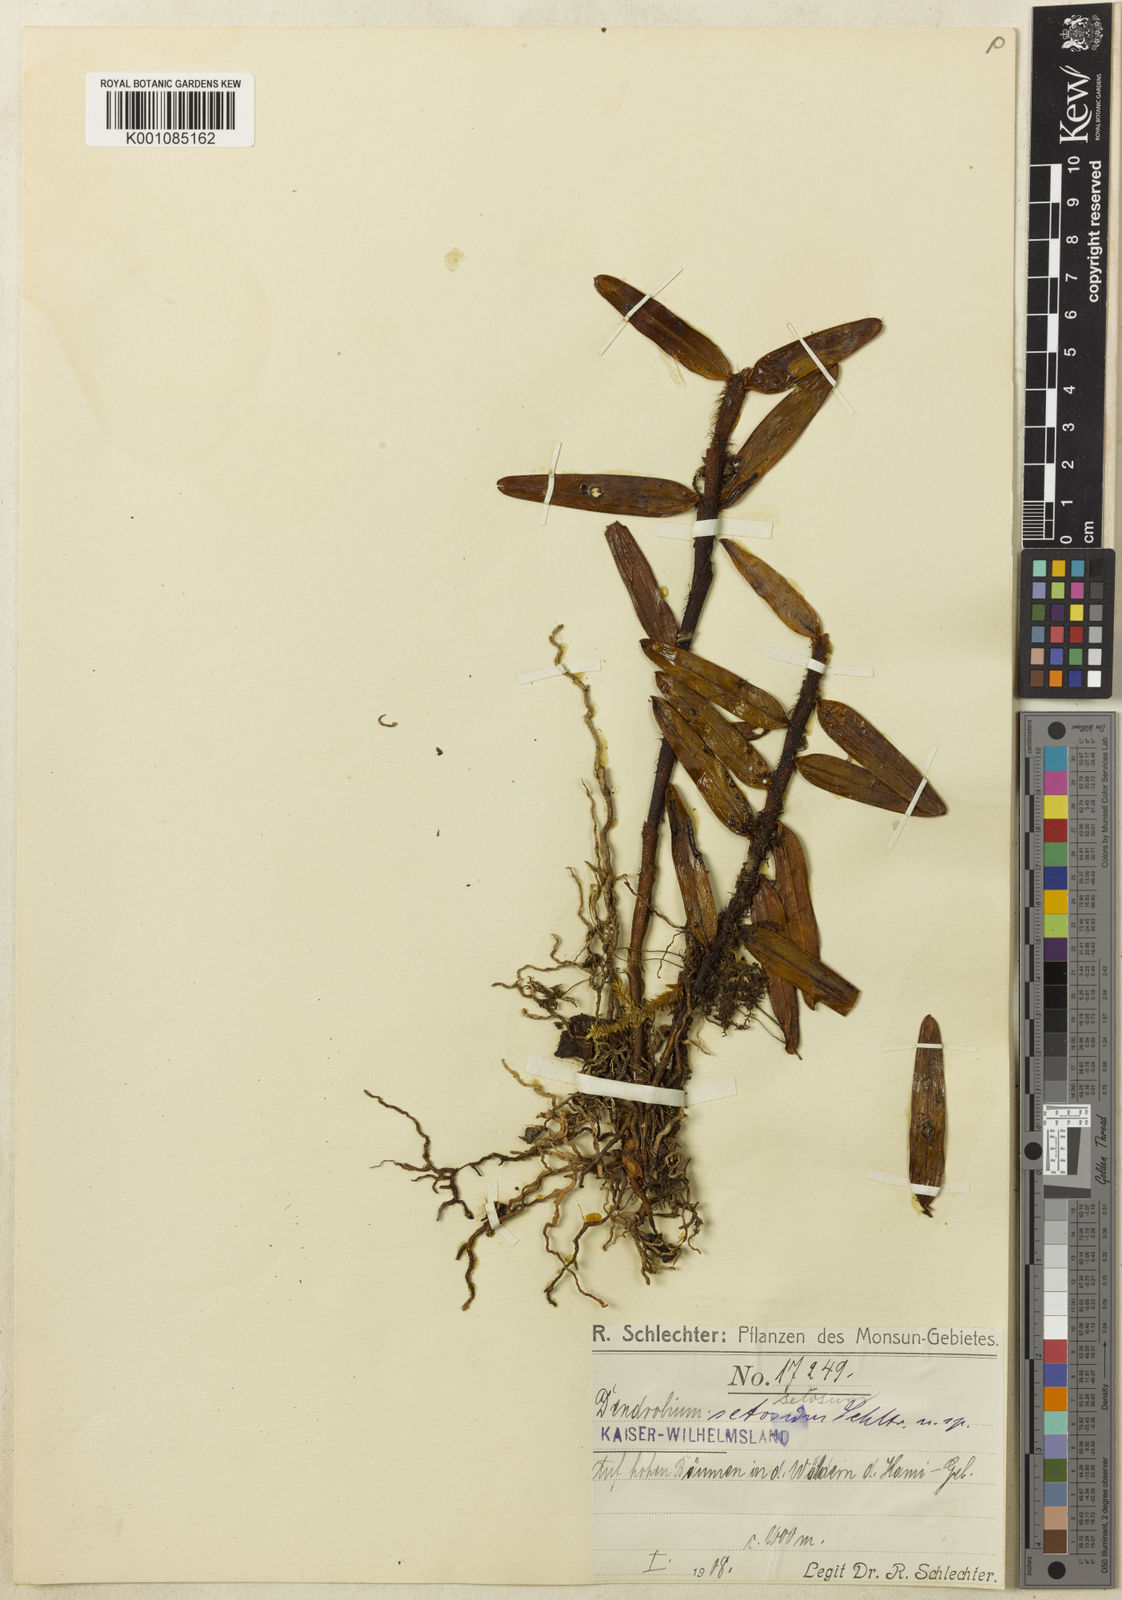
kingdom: Plantae
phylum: Tracheophyta
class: Liliopsida
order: Asparagales
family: Orchidaceae
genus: Dendrobium
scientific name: Dendrobium setosum
